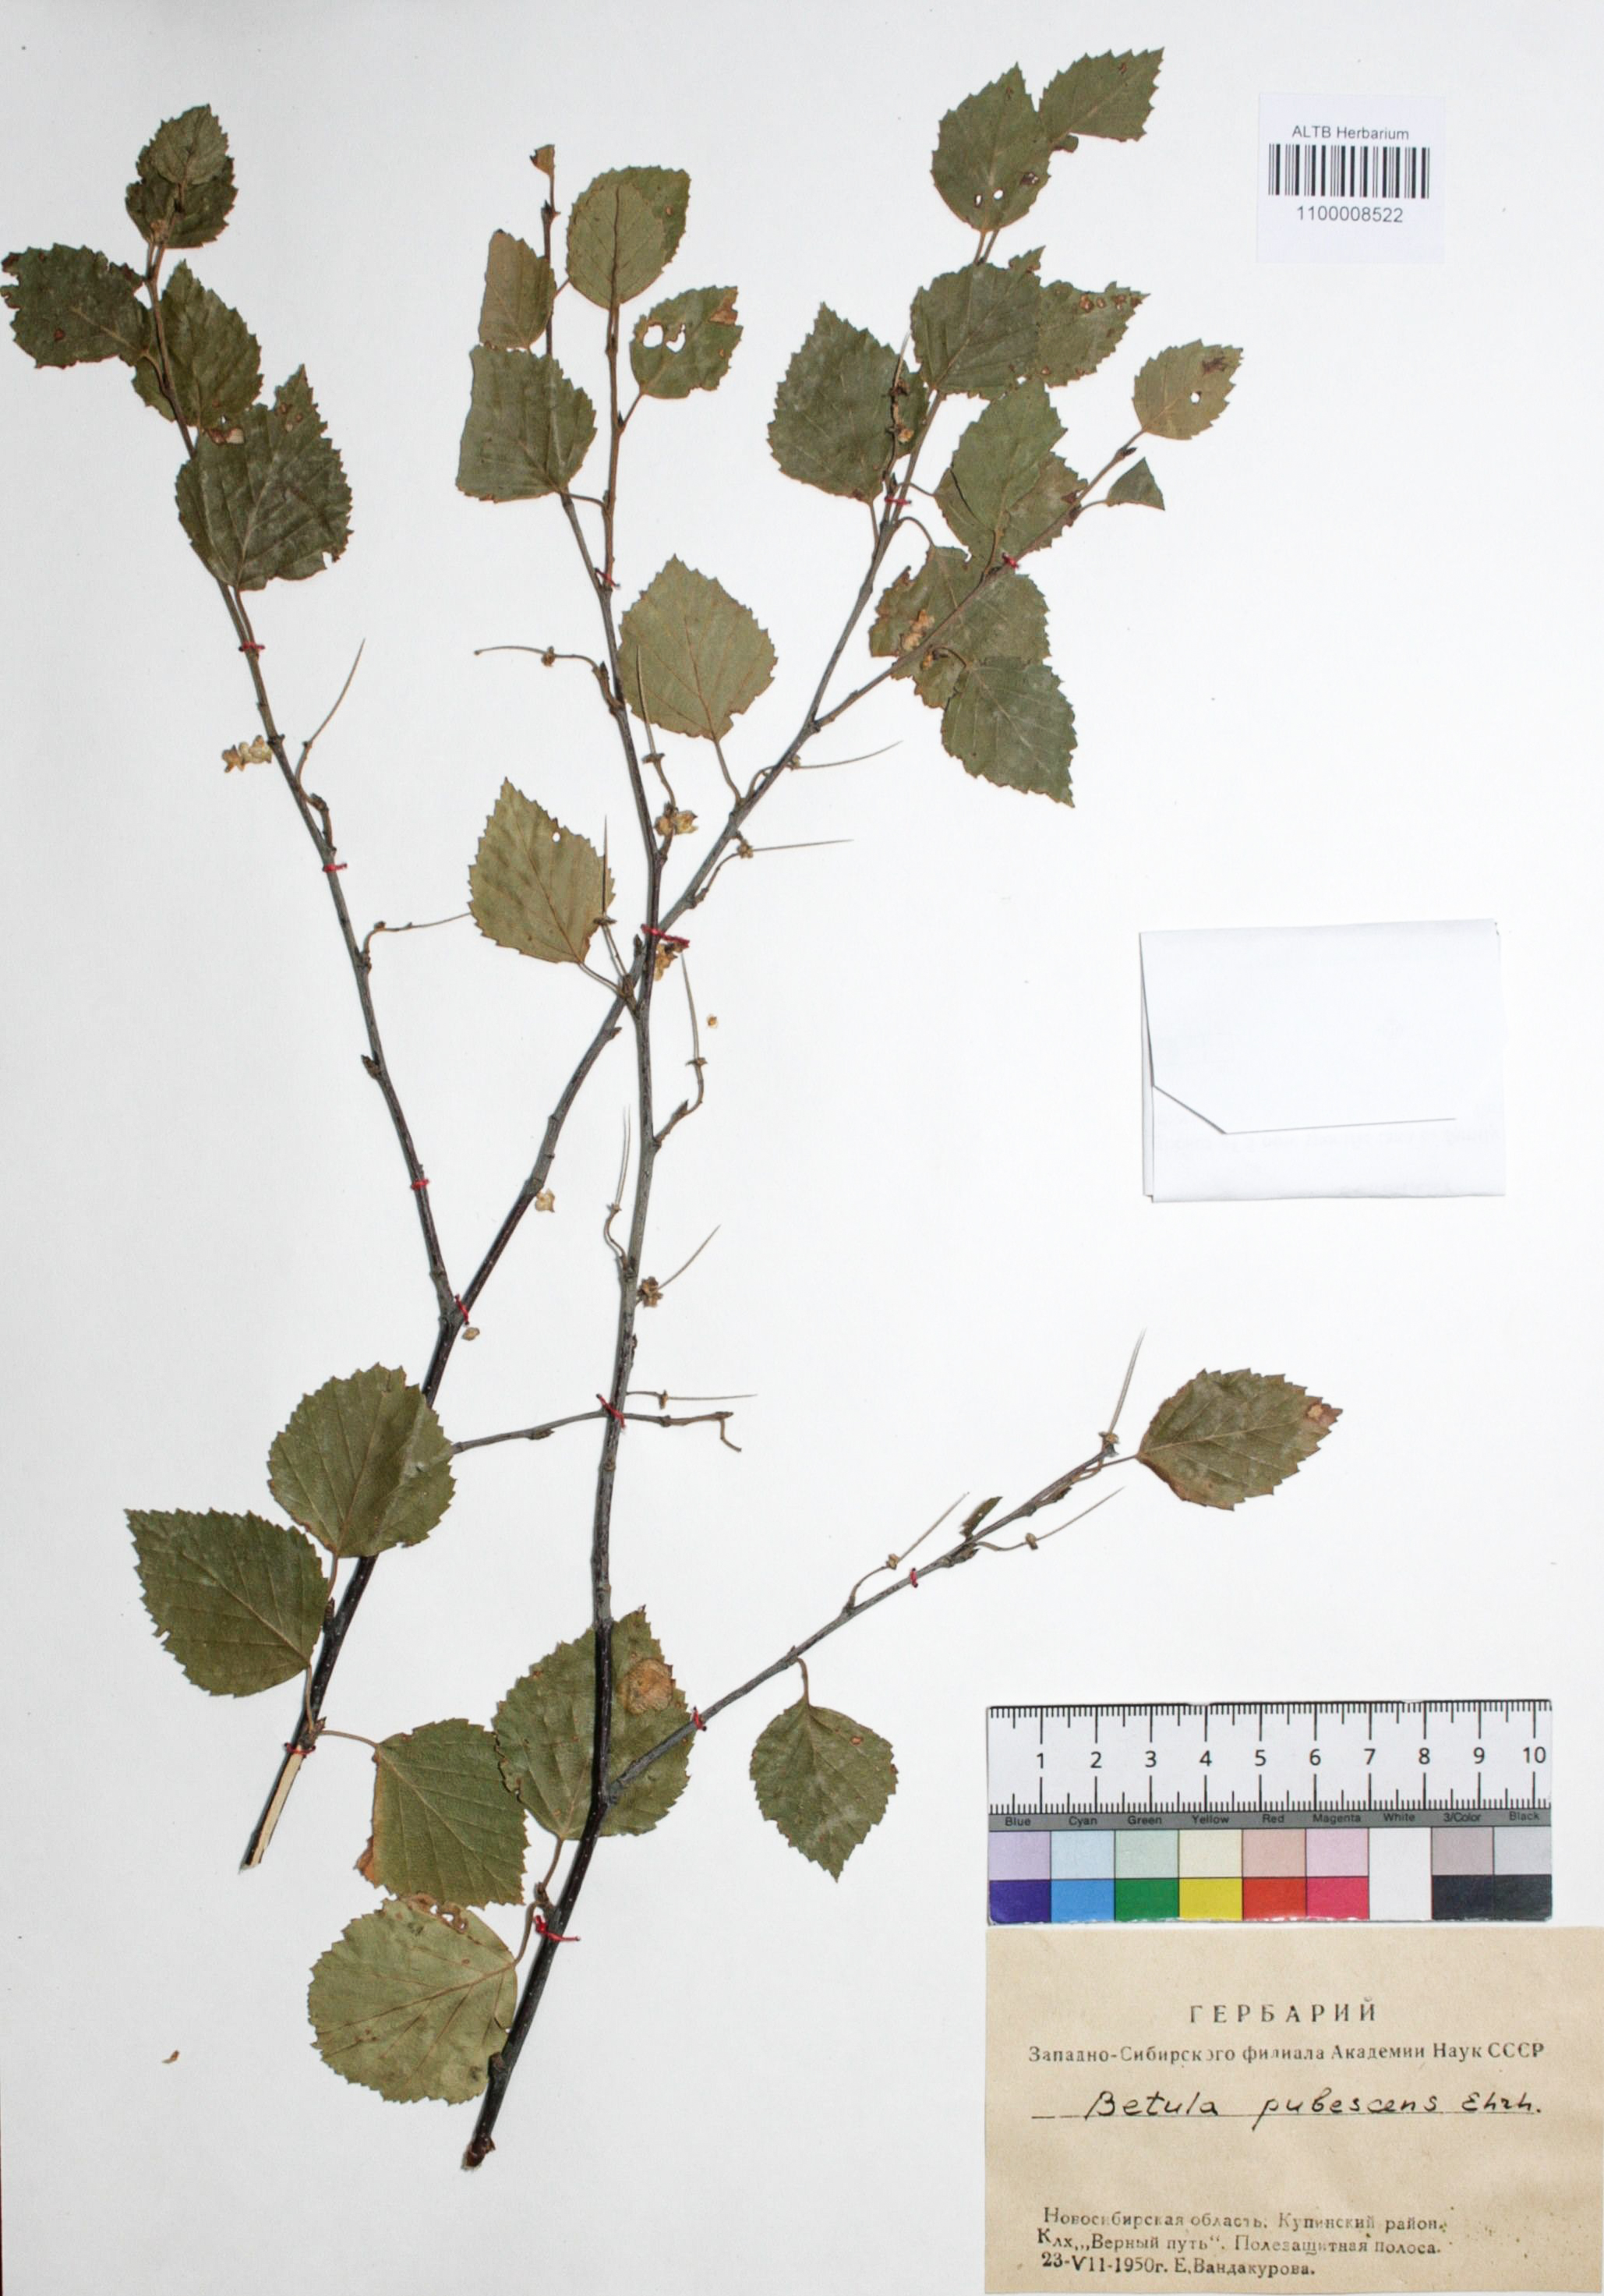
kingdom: Plantae
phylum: Tracheophyta
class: Magnoliopsida
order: Fagales
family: Betulaceae
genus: Betula
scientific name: Betula pubescens
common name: Downy birch
